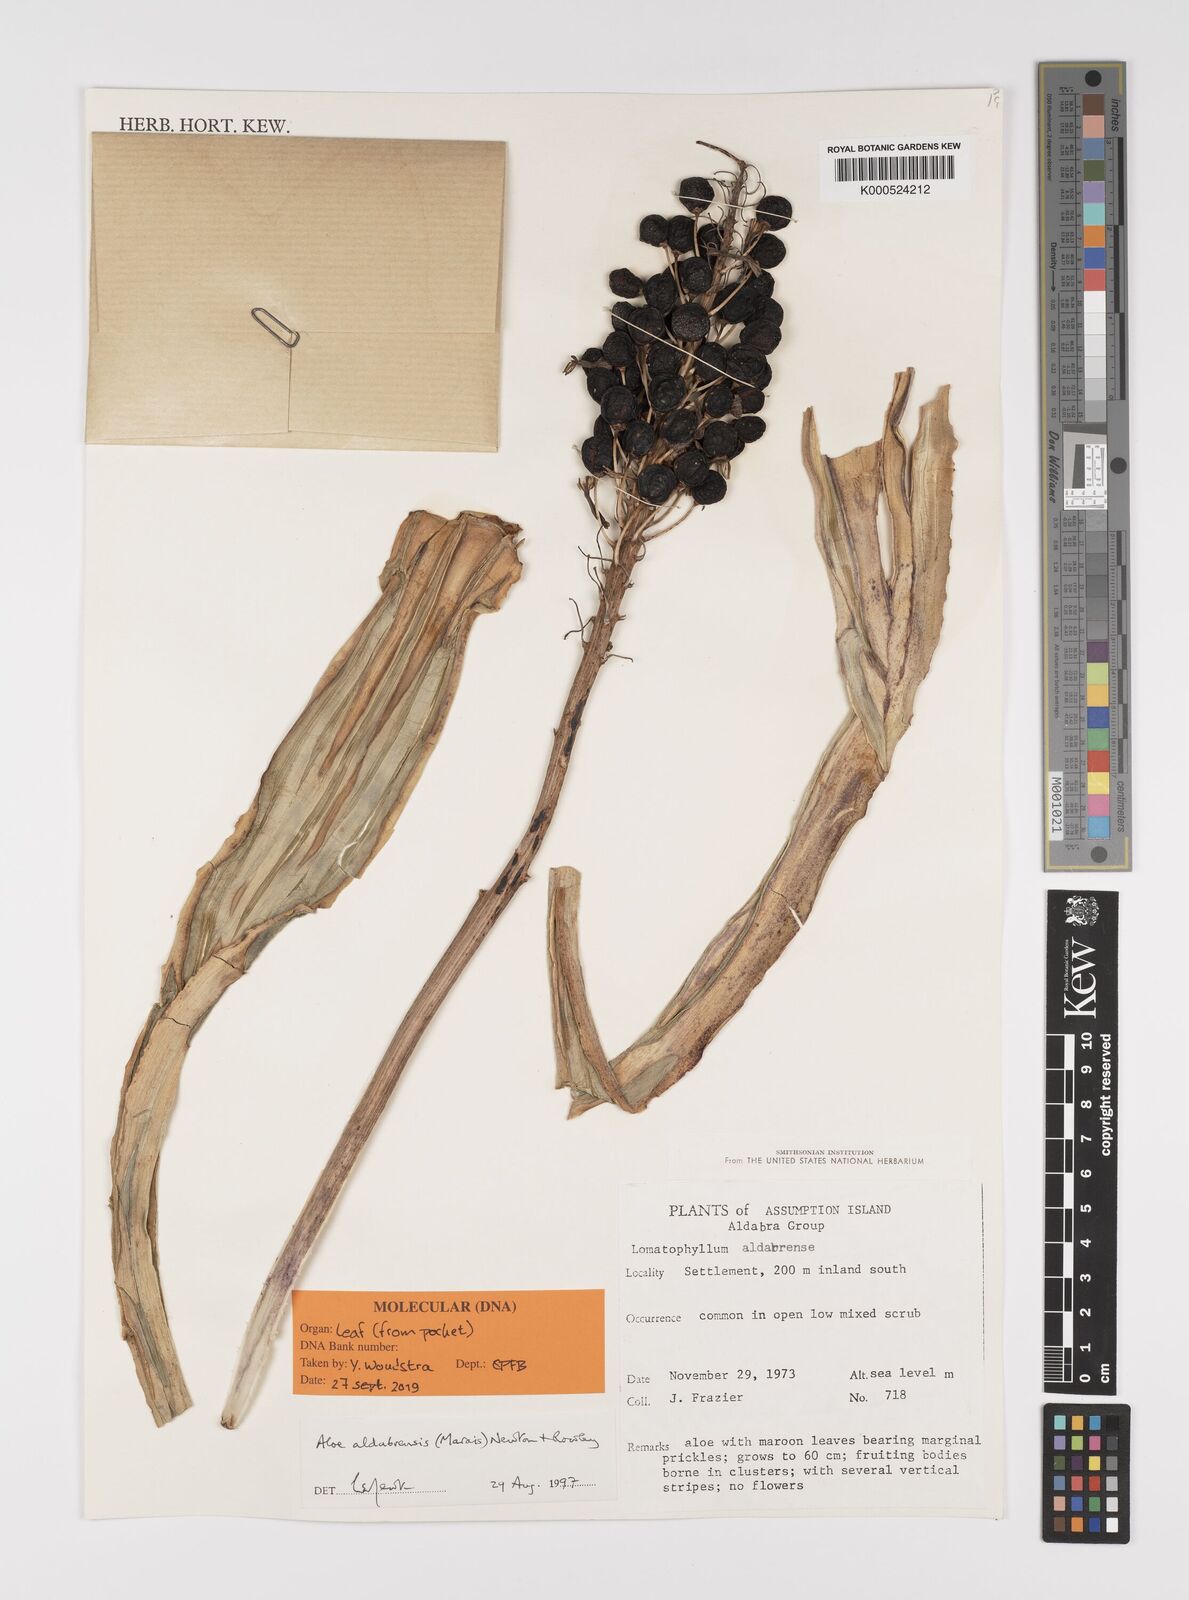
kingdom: Plantae
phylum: Tracheophyta
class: Liliopsida
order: Asparagales
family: Asphodelaceae
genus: Aloe
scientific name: Aloe aldabrensis
